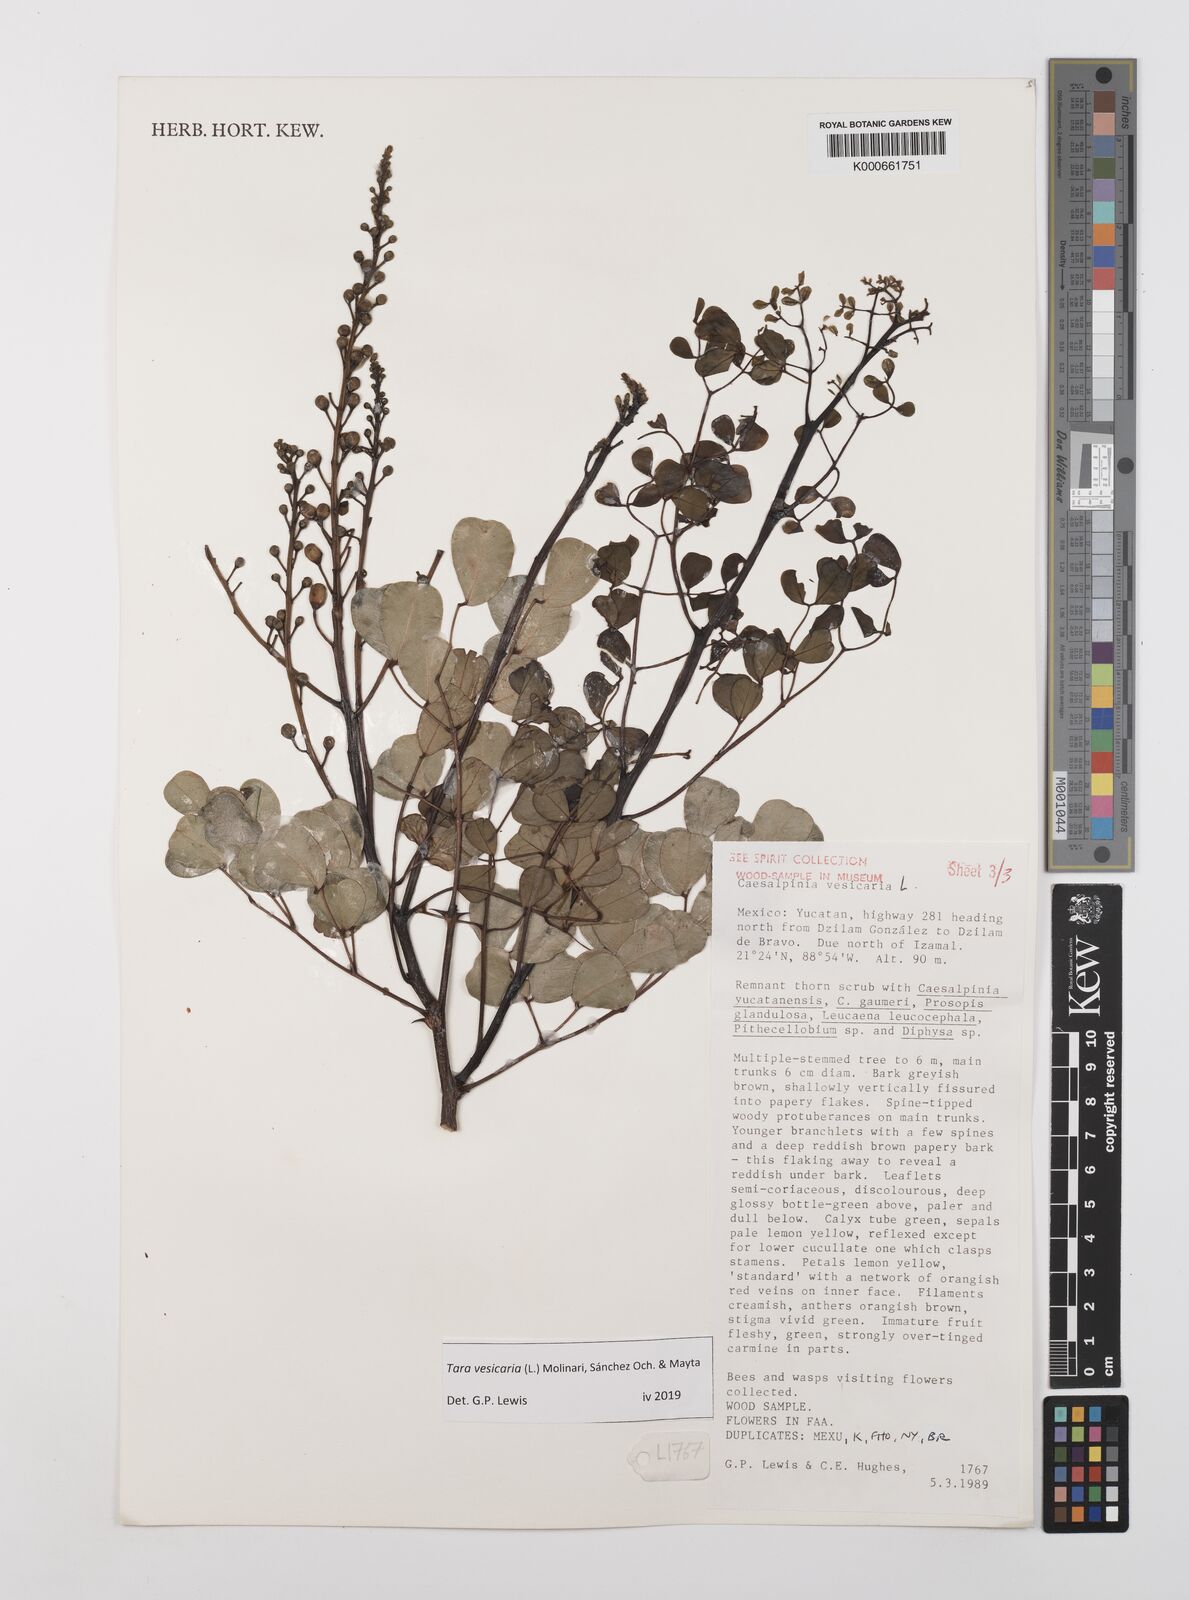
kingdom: Plantae
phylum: Tracheophyta
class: Magnoliopsida
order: Fabales
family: Fabaceae
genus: Tara
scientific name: Tara vesicaria
